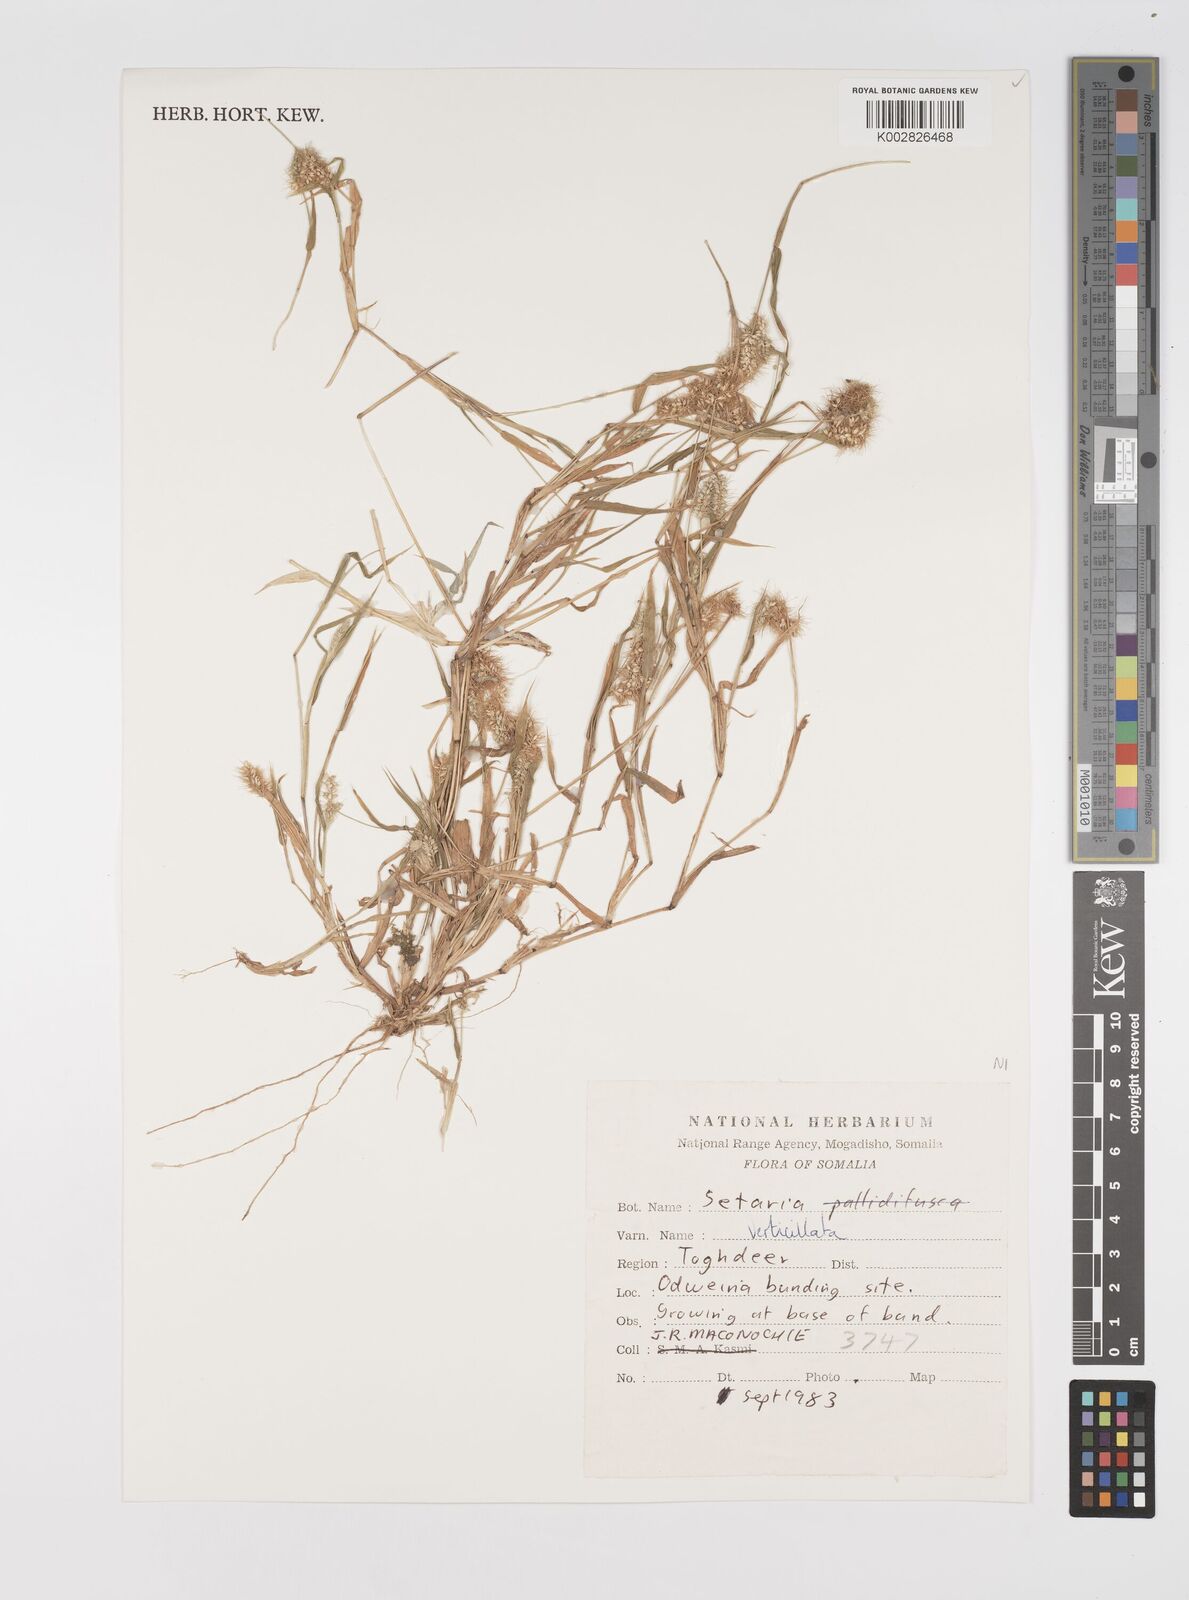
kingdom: Plantae
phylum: Tracheophyta
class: Liliopsida
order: Poales
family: Poaceae
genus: Setaria
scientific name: Setaria verticillata
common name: Hooked bristlegrass
